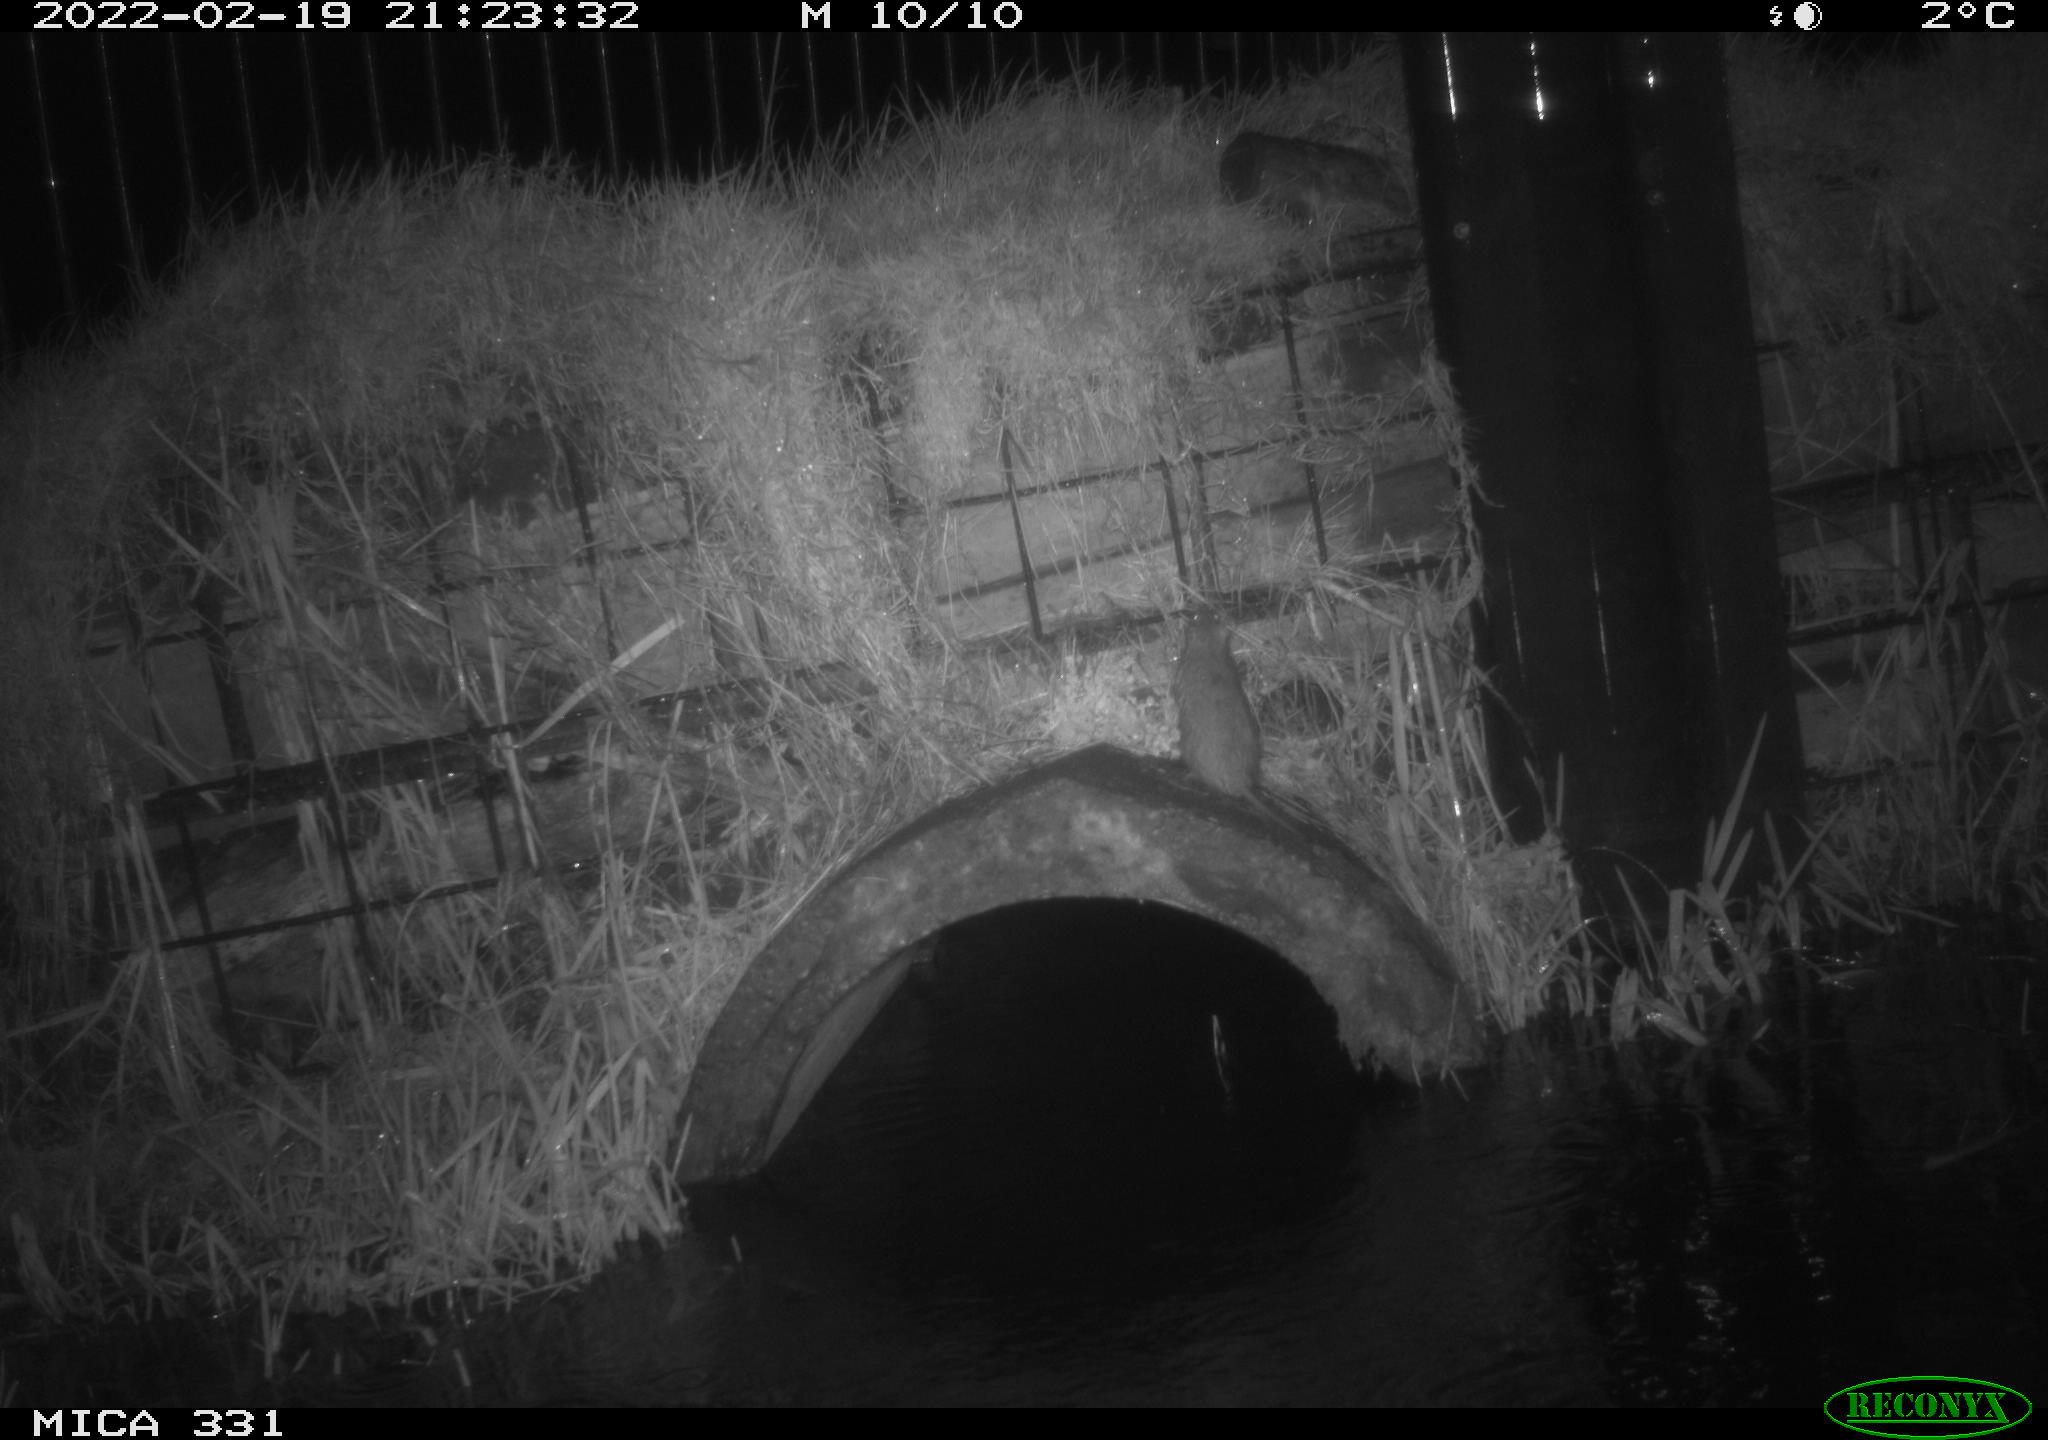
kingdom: Animalia
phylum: Chordata
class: Mammalia
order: Rodentia
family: Muridae
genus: Rattus
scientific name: Rattus norvegicus
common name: Brown rat
